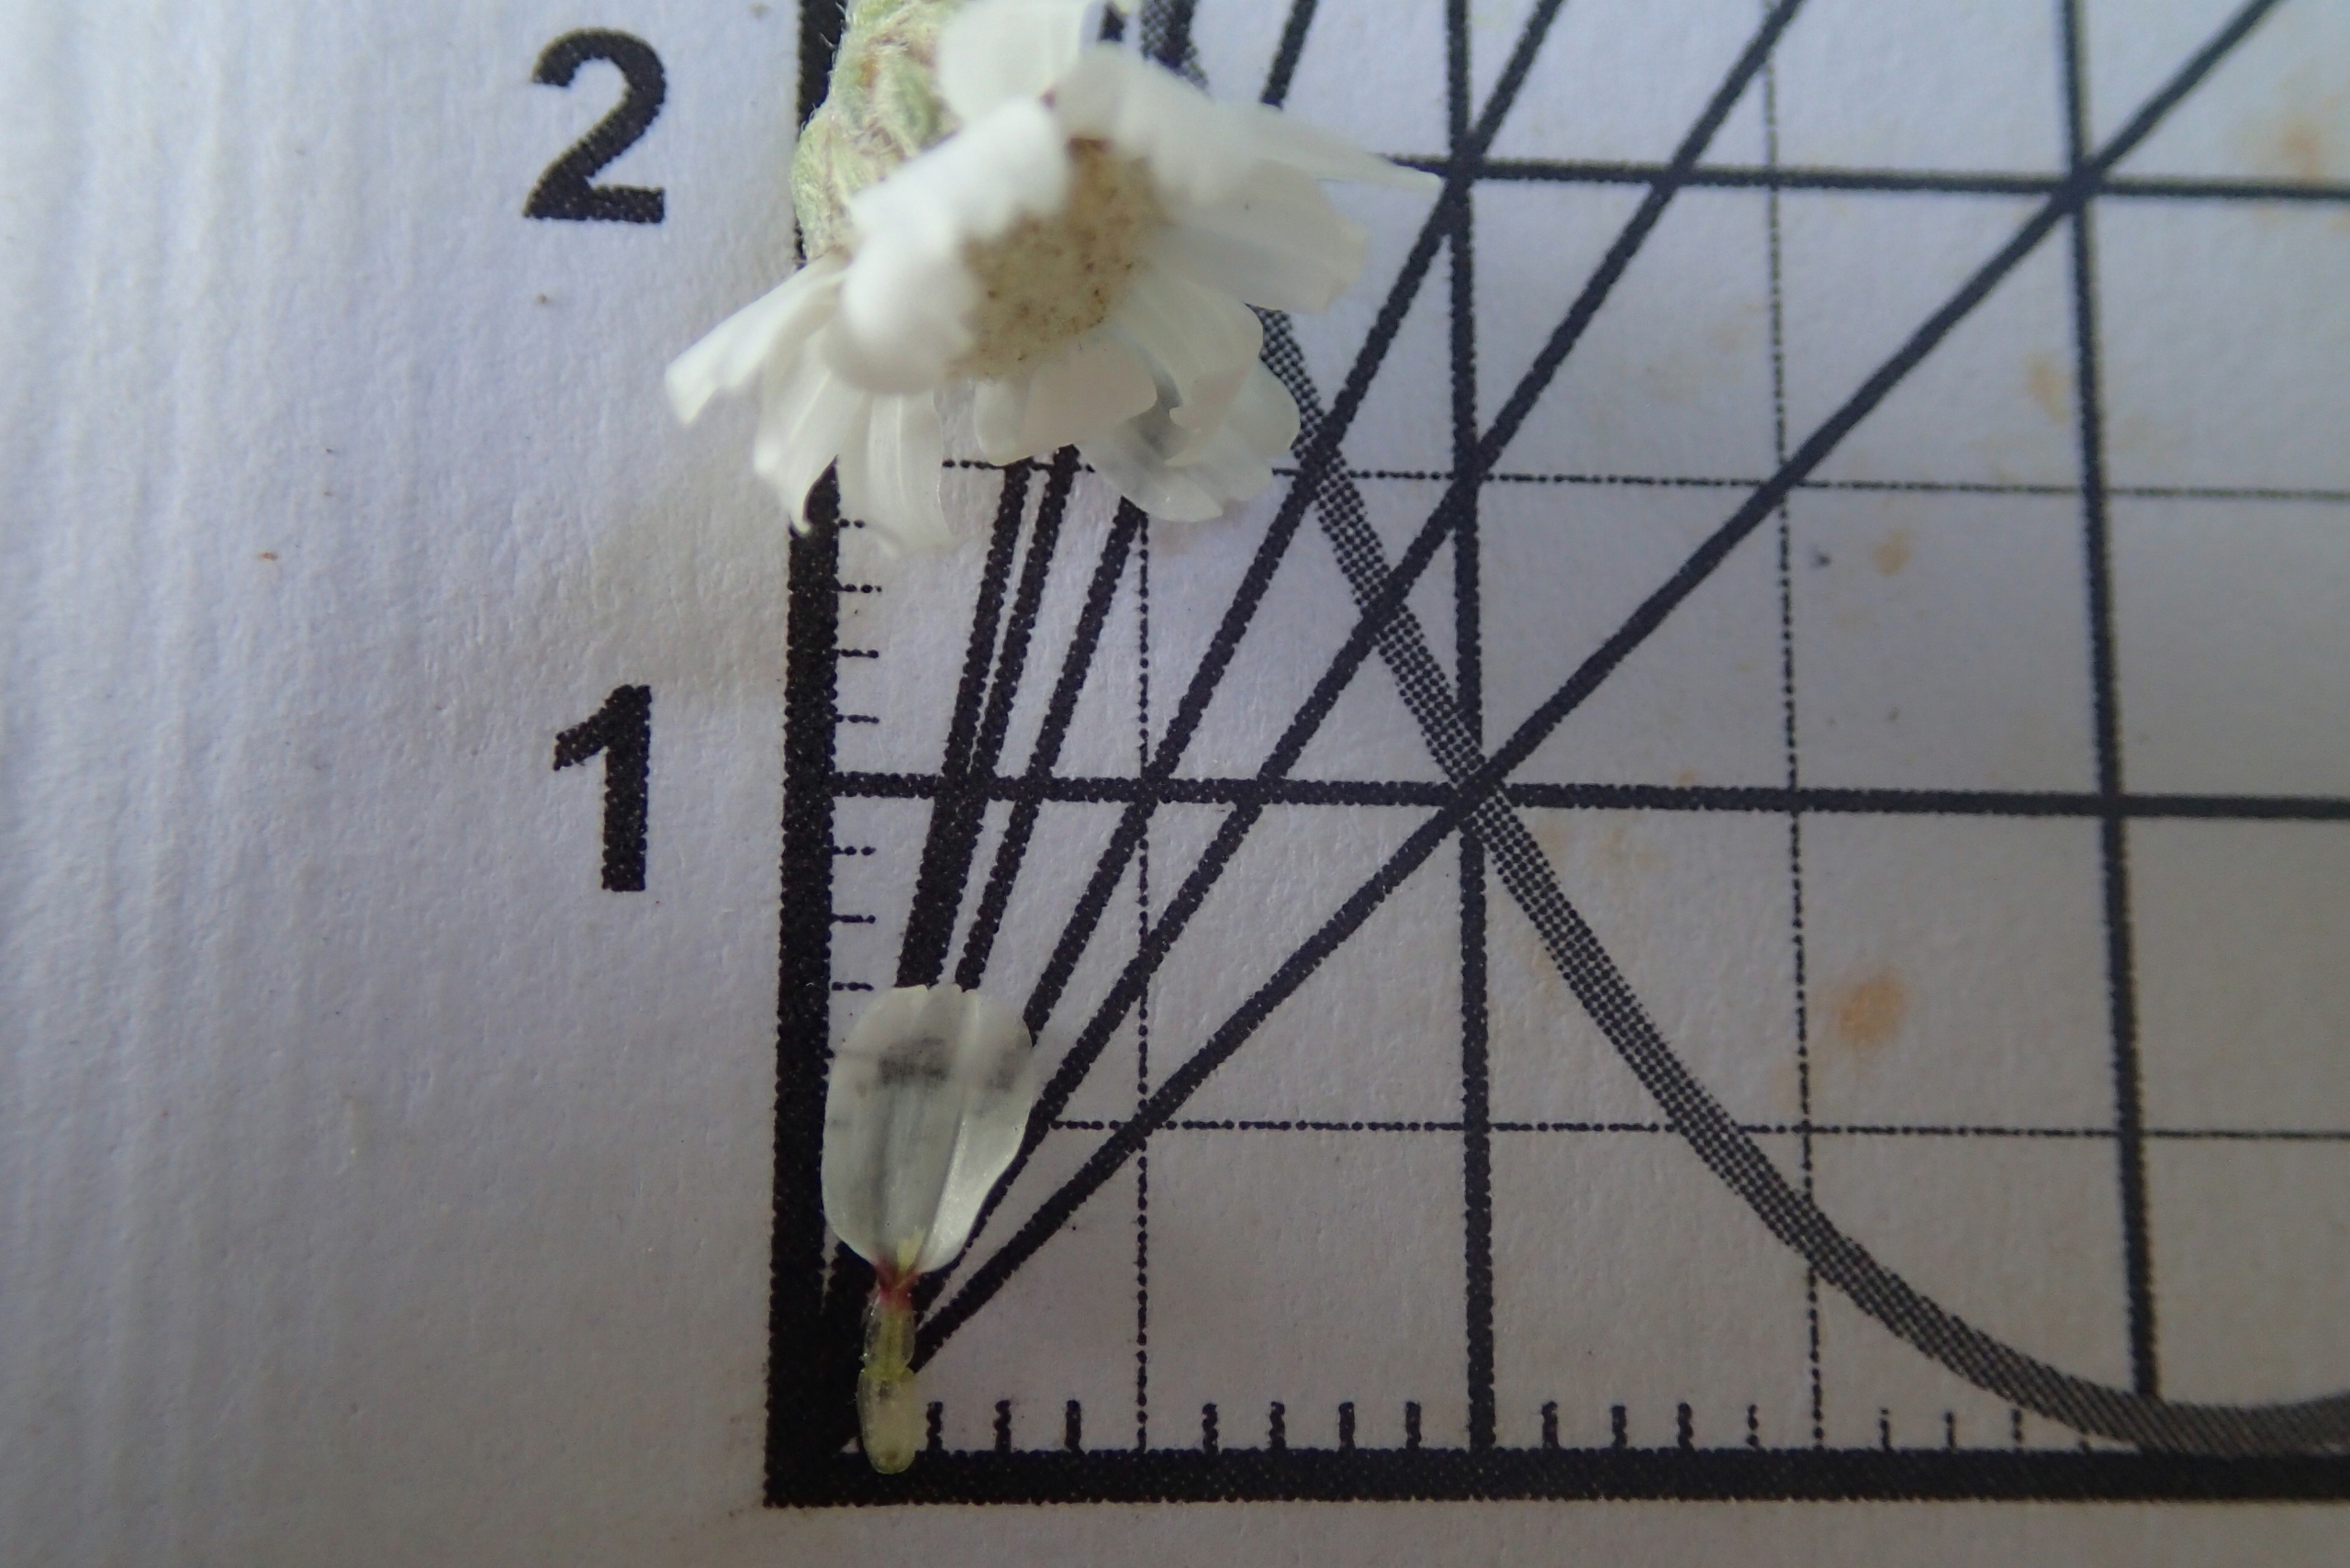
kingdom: Plantae
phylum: Tracheophyta
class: Magnoliopsida
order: Asterales
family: Asteraceae
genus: Achillea
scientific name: Achillea ptarmica
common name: Nyse-røllike
